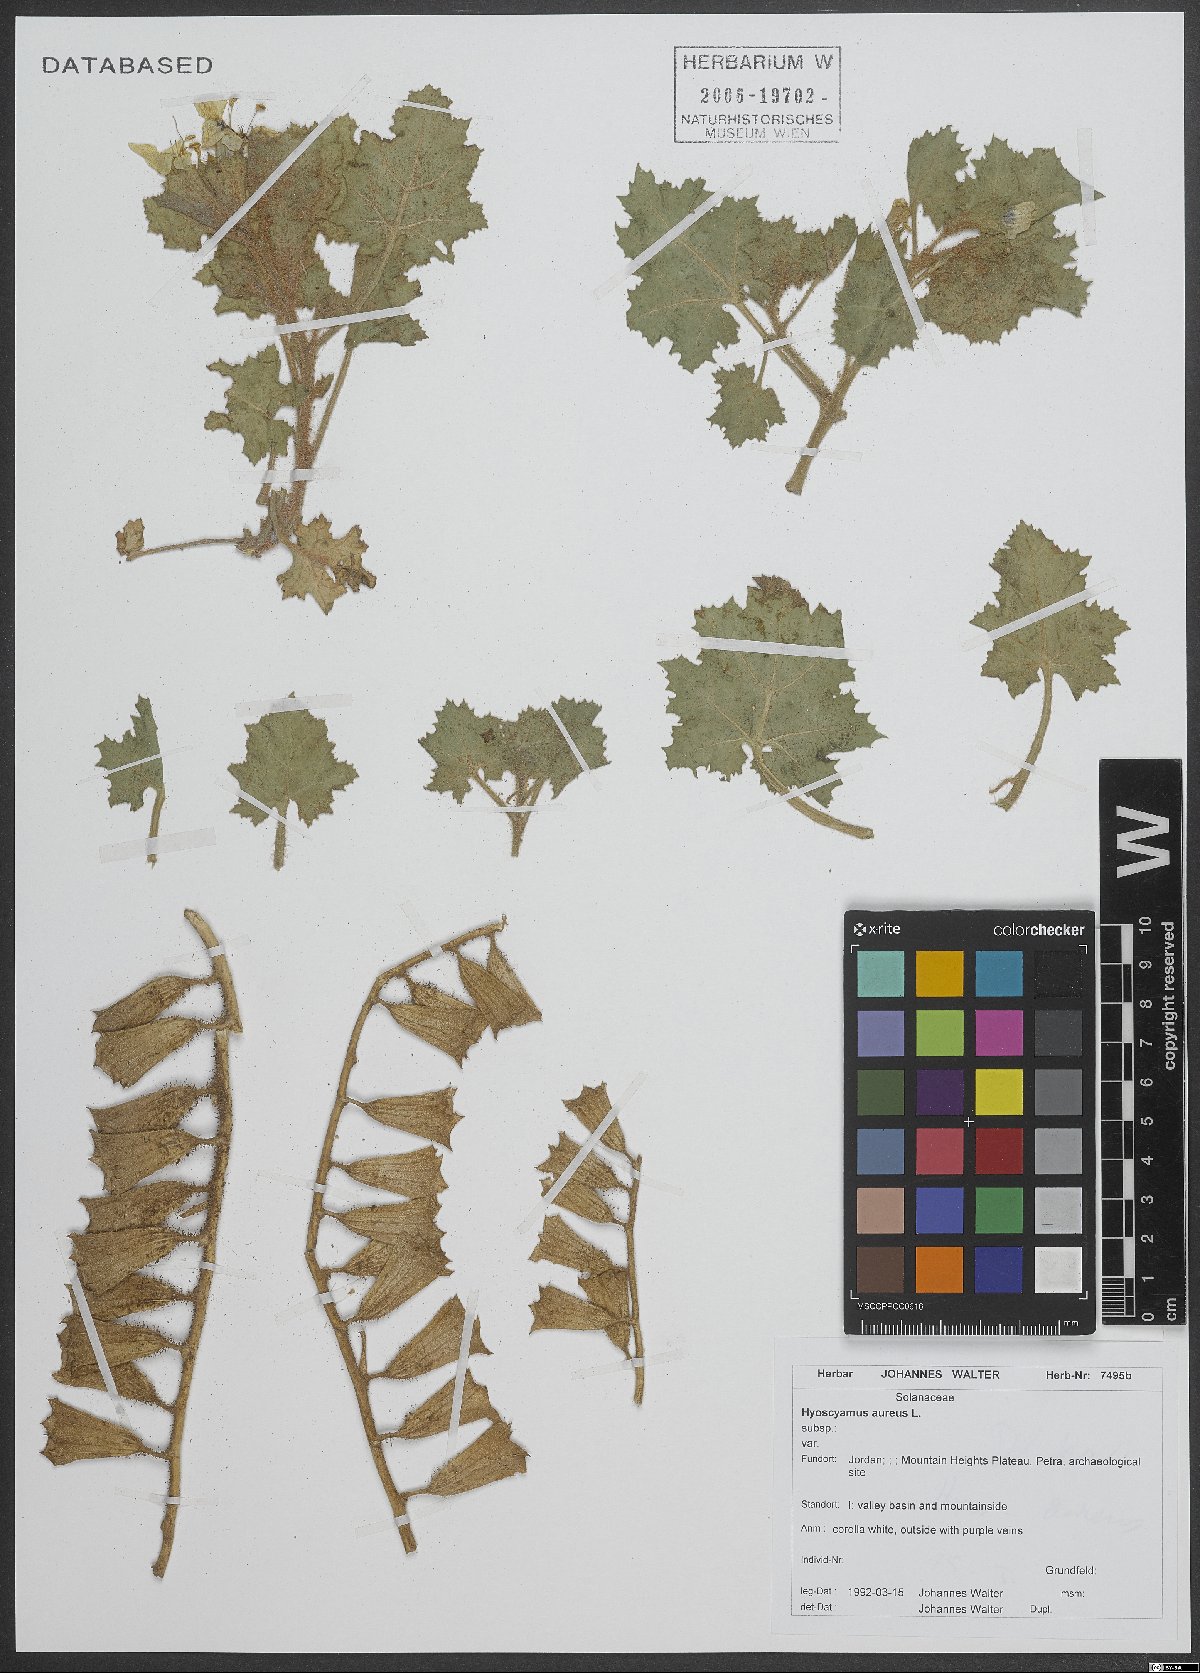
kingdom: Plantae
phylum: Tracheophyta
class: Magnoliopsida
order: Solanales
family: Solanaceae
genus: Hyoscyamus
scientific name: Hyoscyamus aureus
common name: Golden henbane
